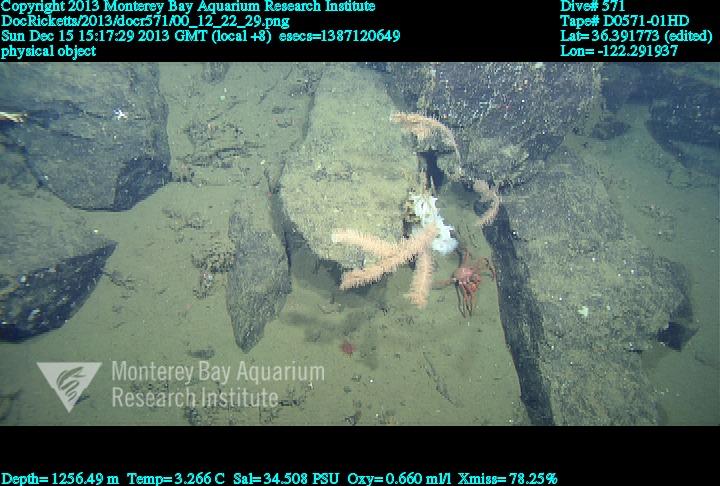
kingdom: Animalia
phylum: Cnidaria
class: Anthozoa
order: Antipatharia
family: Schizopathidae
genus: Lillipathes
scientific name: Lillipathes
